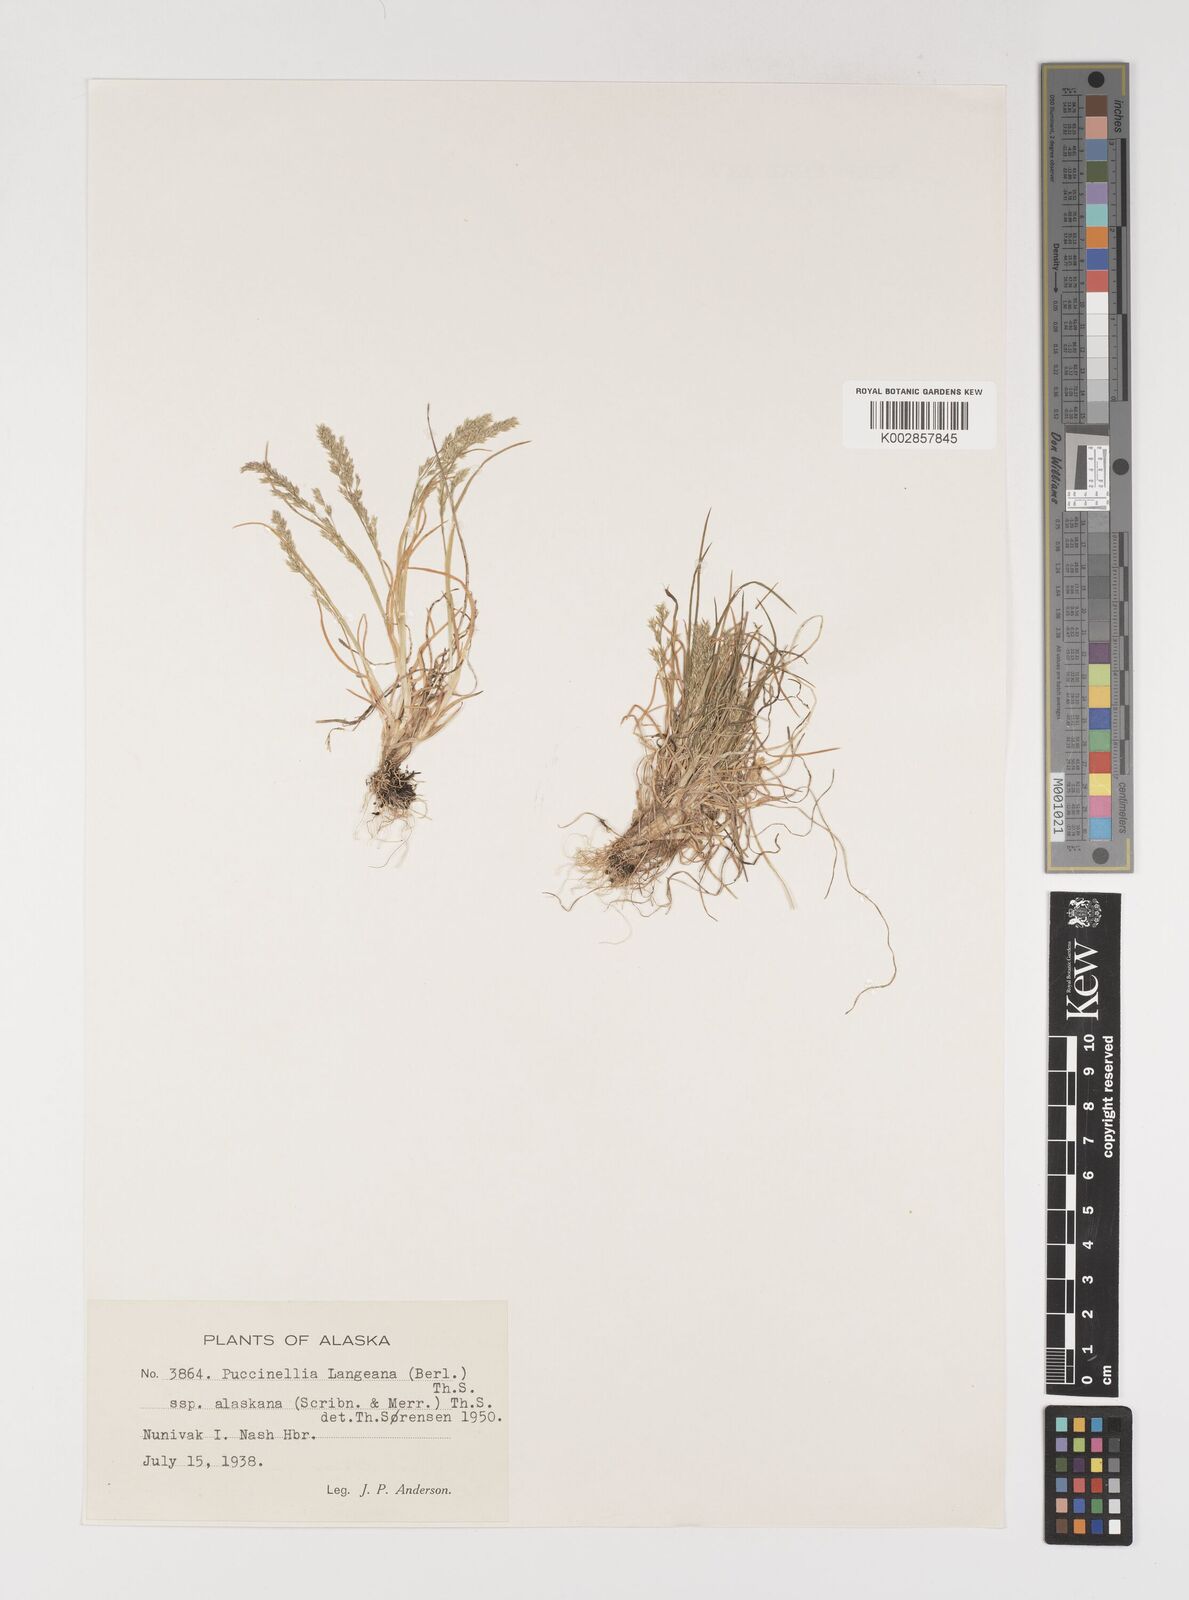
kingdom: Plantae
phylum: Tracheophyta
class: Liliopsida
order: Poales
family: Poaceae
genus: Puccinellia
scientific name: Puccinellia tenella
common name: Tundra alkaligrass
